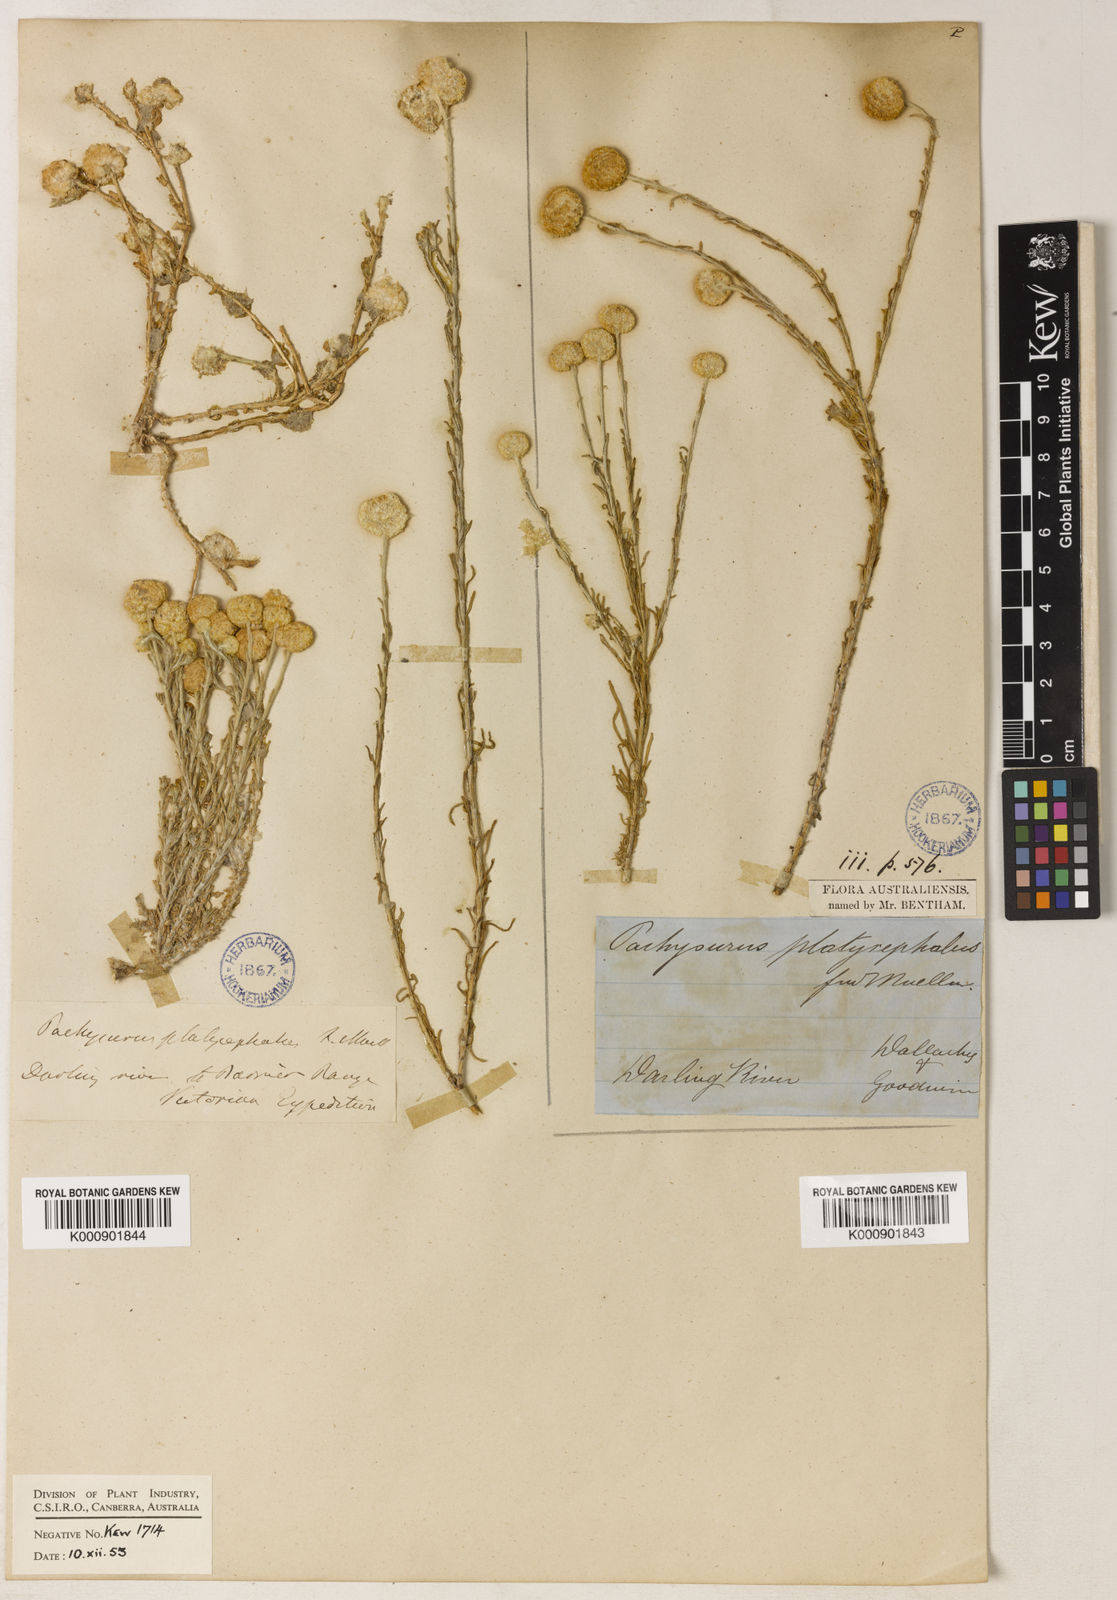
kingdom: Plantae
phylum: Tracheophyta
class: Magnoliopsida
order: Asterales
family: Asteraceae
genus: Calocephalus
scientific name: Calocephalus platycephalus
